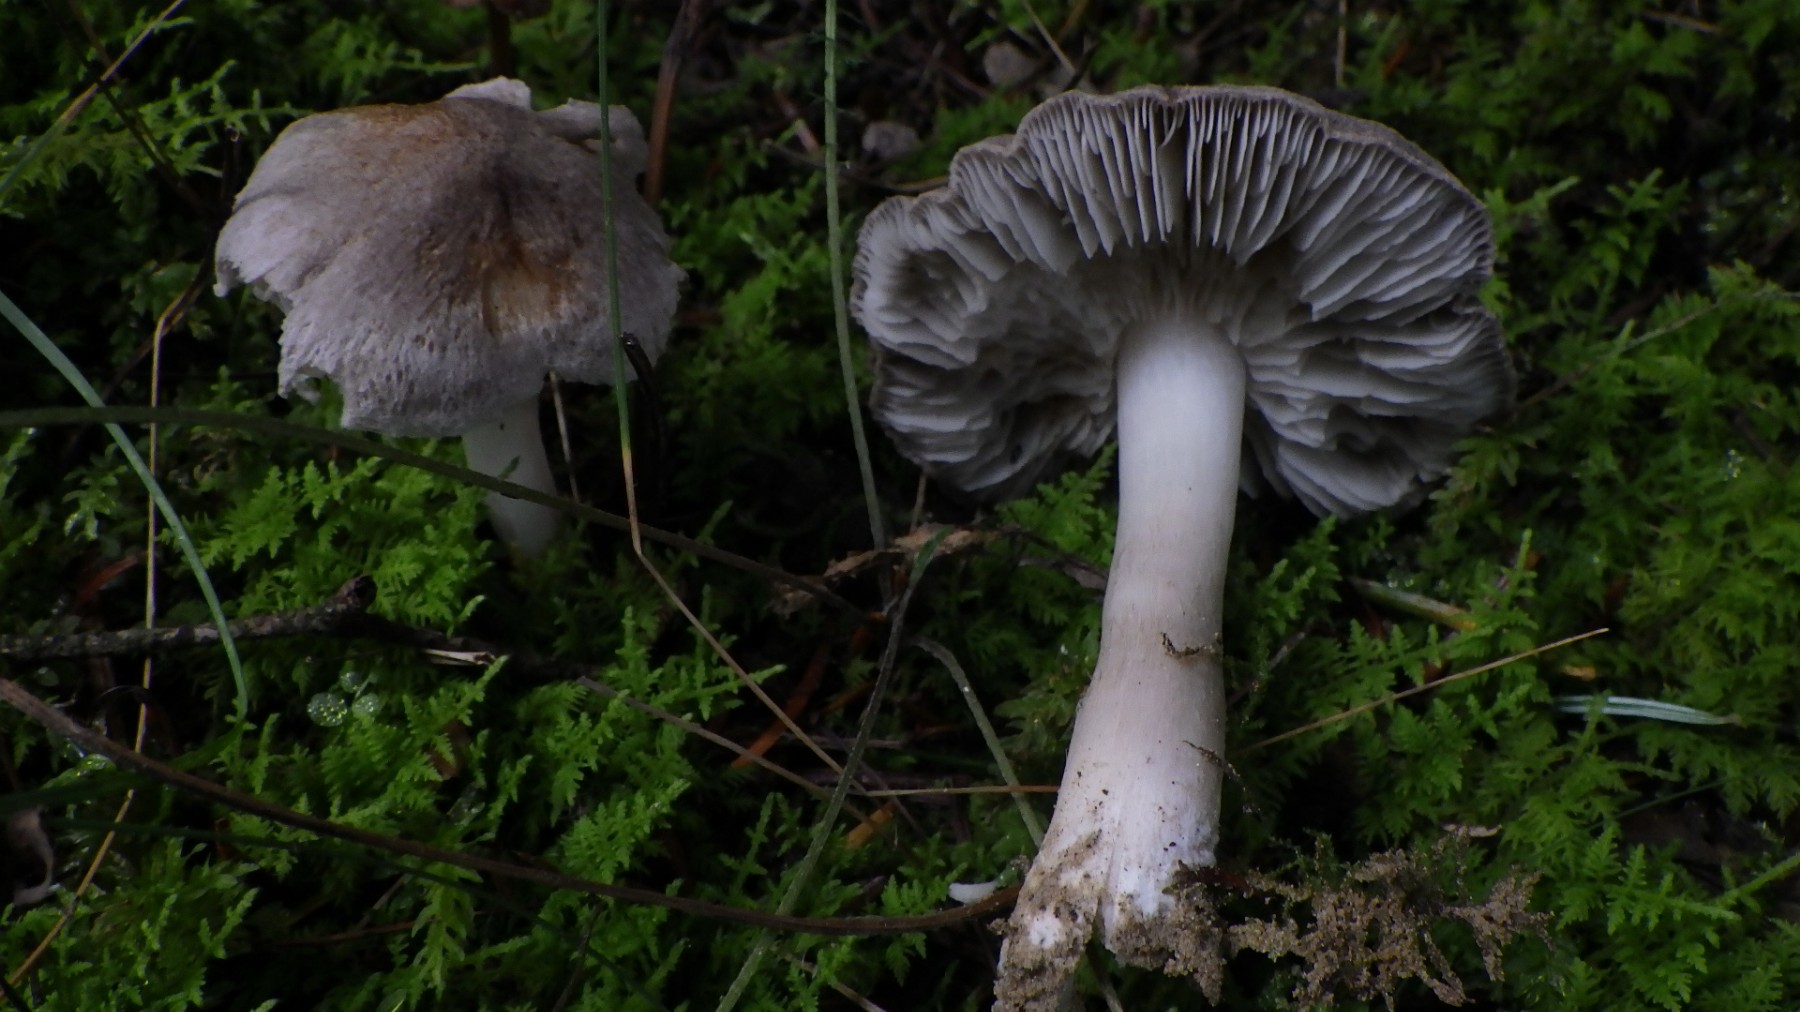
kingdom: Fungi
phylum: Basidiomycota
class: Agaricomycetes
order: Agaricales
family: Tricholomataceae
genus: Tricholoma
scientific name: Tricholoma argyraceum
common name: slør-ridderhat
